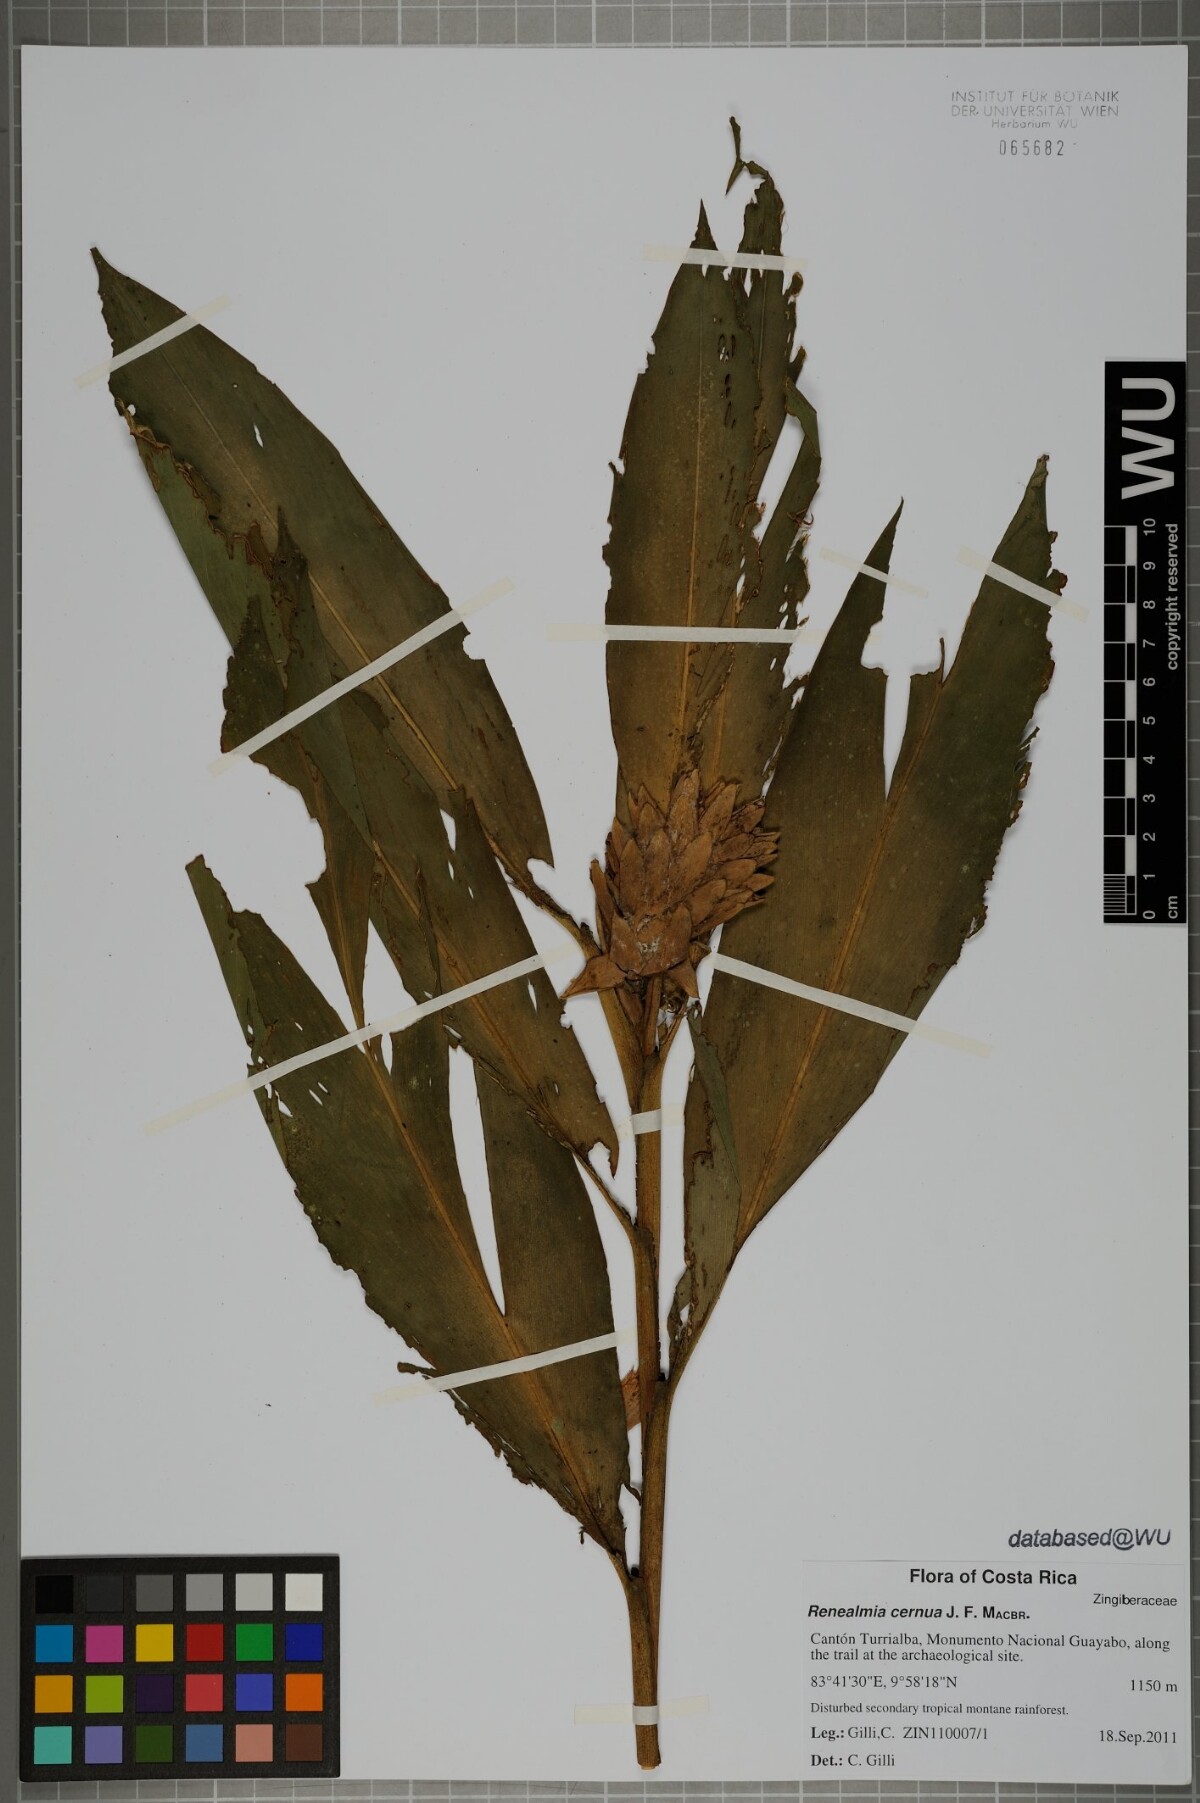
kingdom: Plantae
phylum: Tracheophyta
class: Liliopsida
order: Zingiberales
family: Zingiberaceae
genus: Renealmia
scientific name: Renealmia cernua
